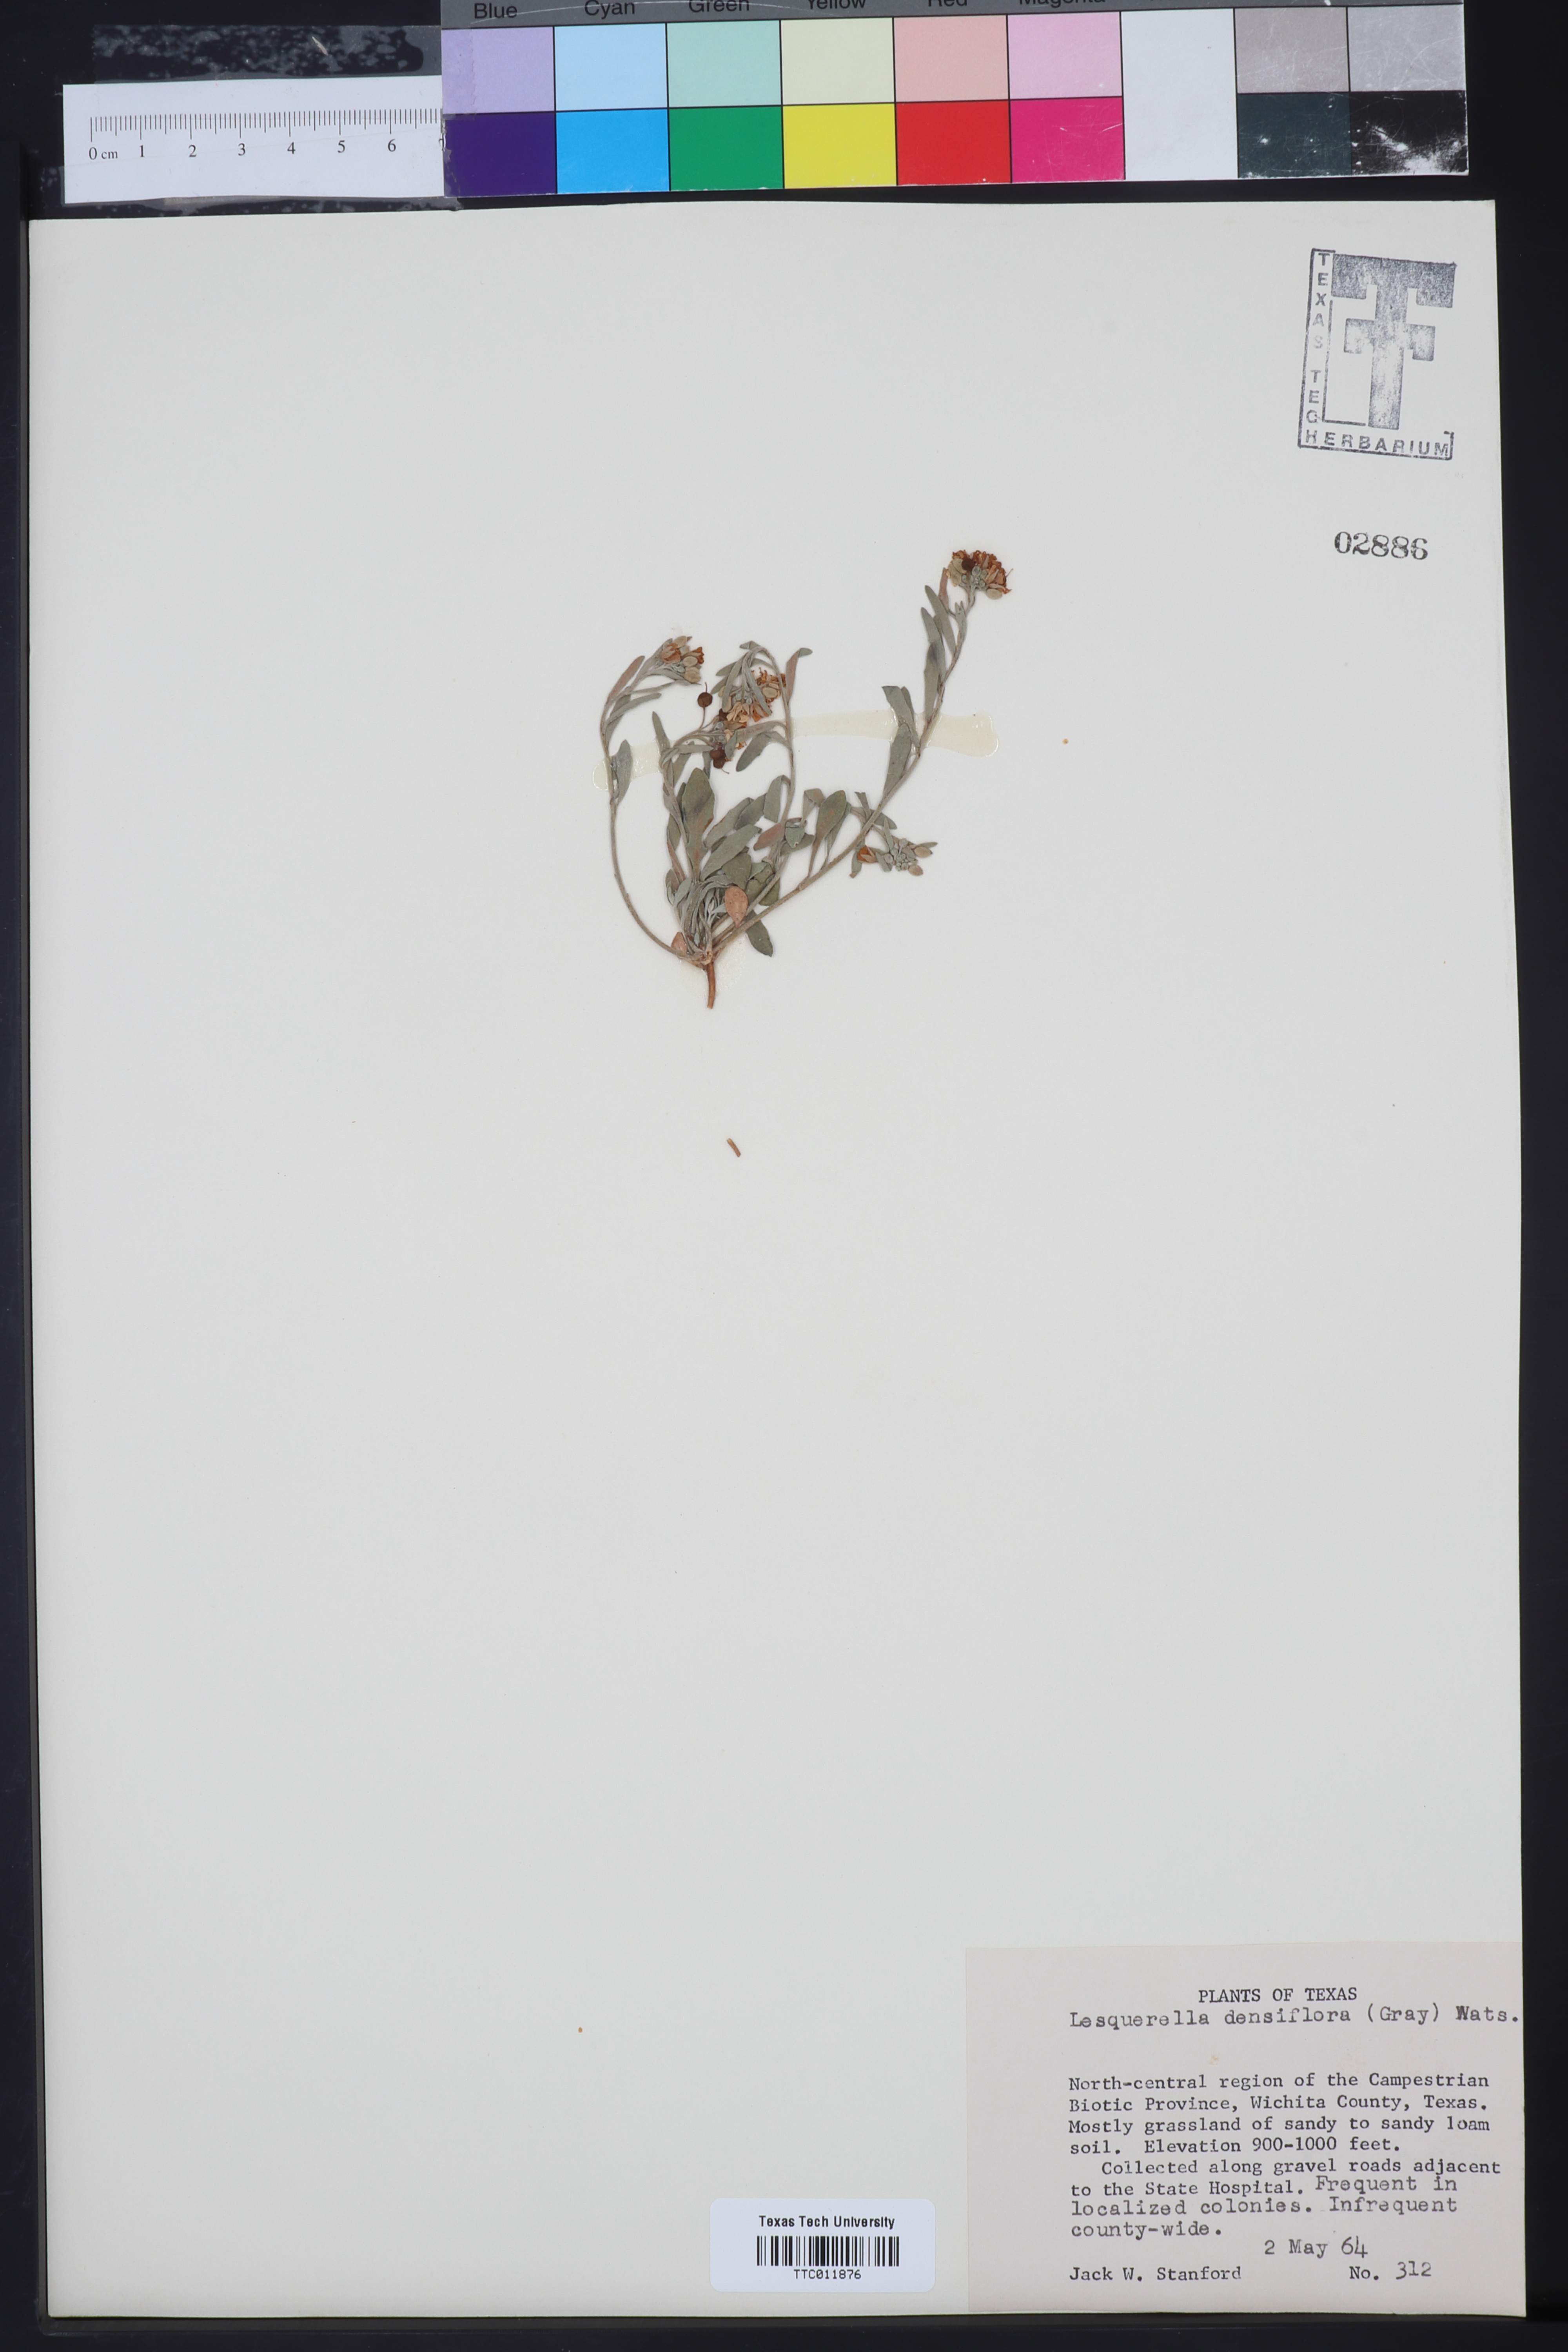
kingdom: Plantae
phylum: Tracheophyta
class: Magnoliopsida
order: Brassicales
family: Brassicaceae
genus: Physaria
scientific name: Physaria densiflora
